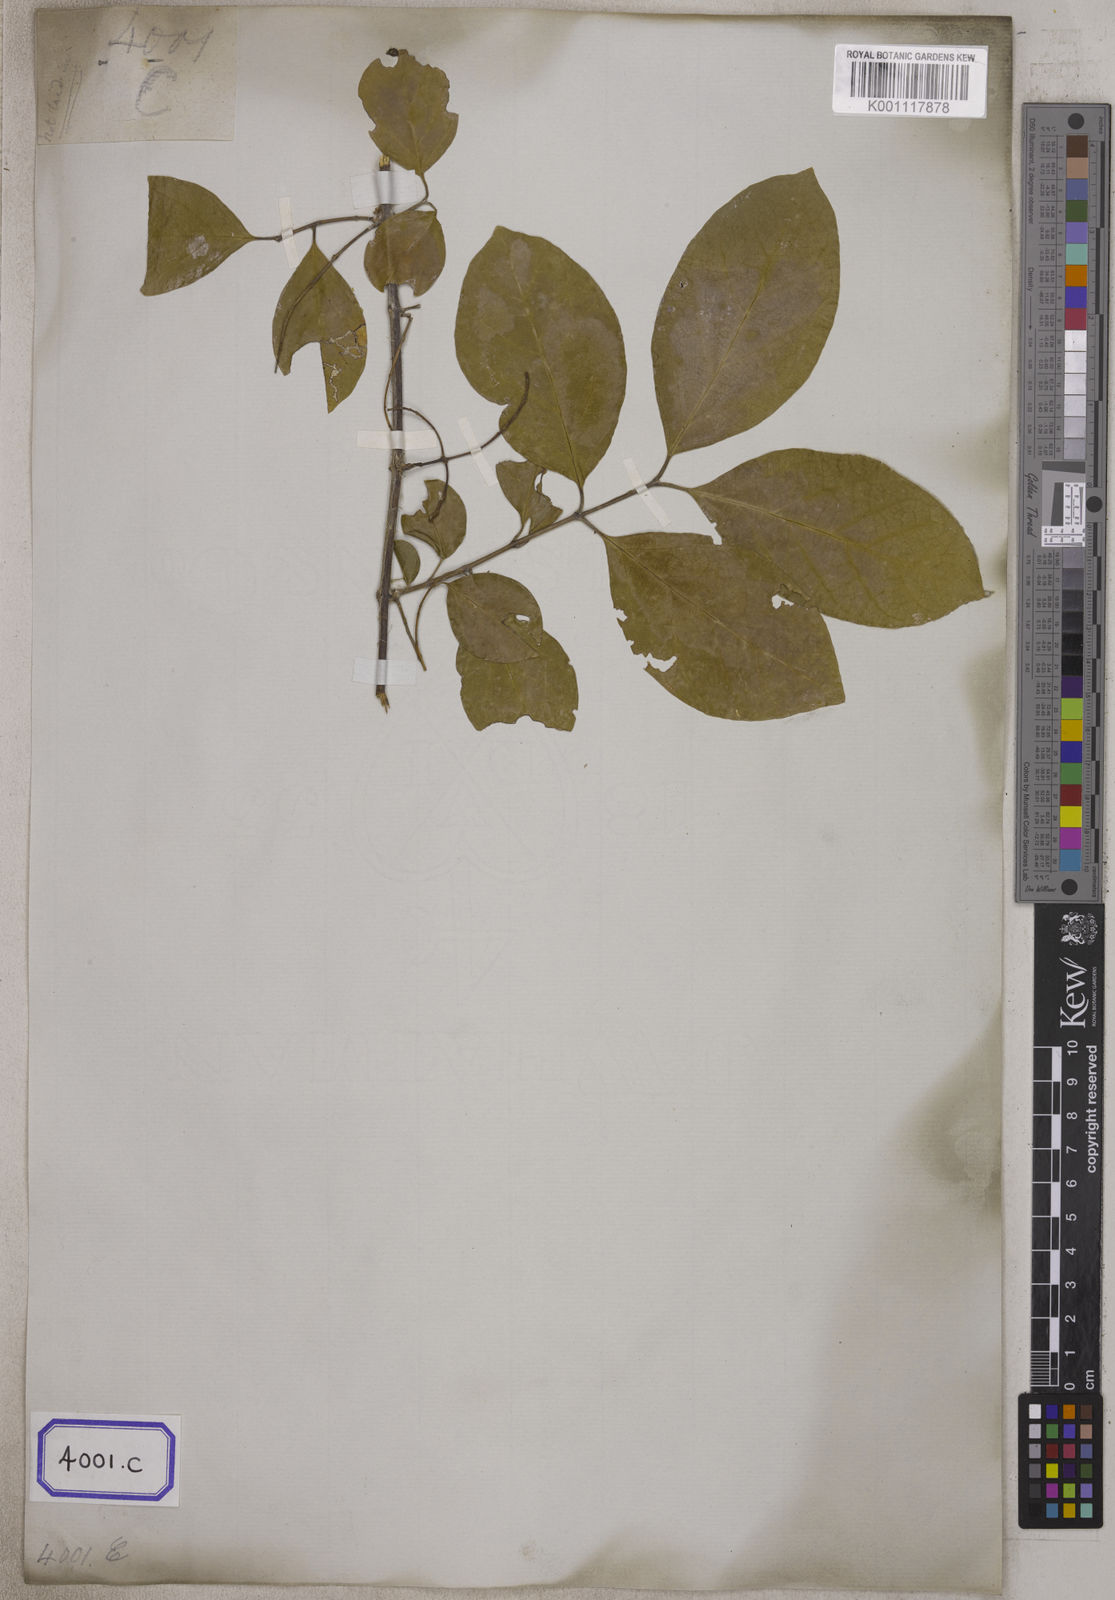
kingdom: Plantae
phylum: Tracheophyta
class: Magnoliopsida
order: Myrtales
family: Combretaceae
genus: Combretum
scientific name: Combretum albidum
